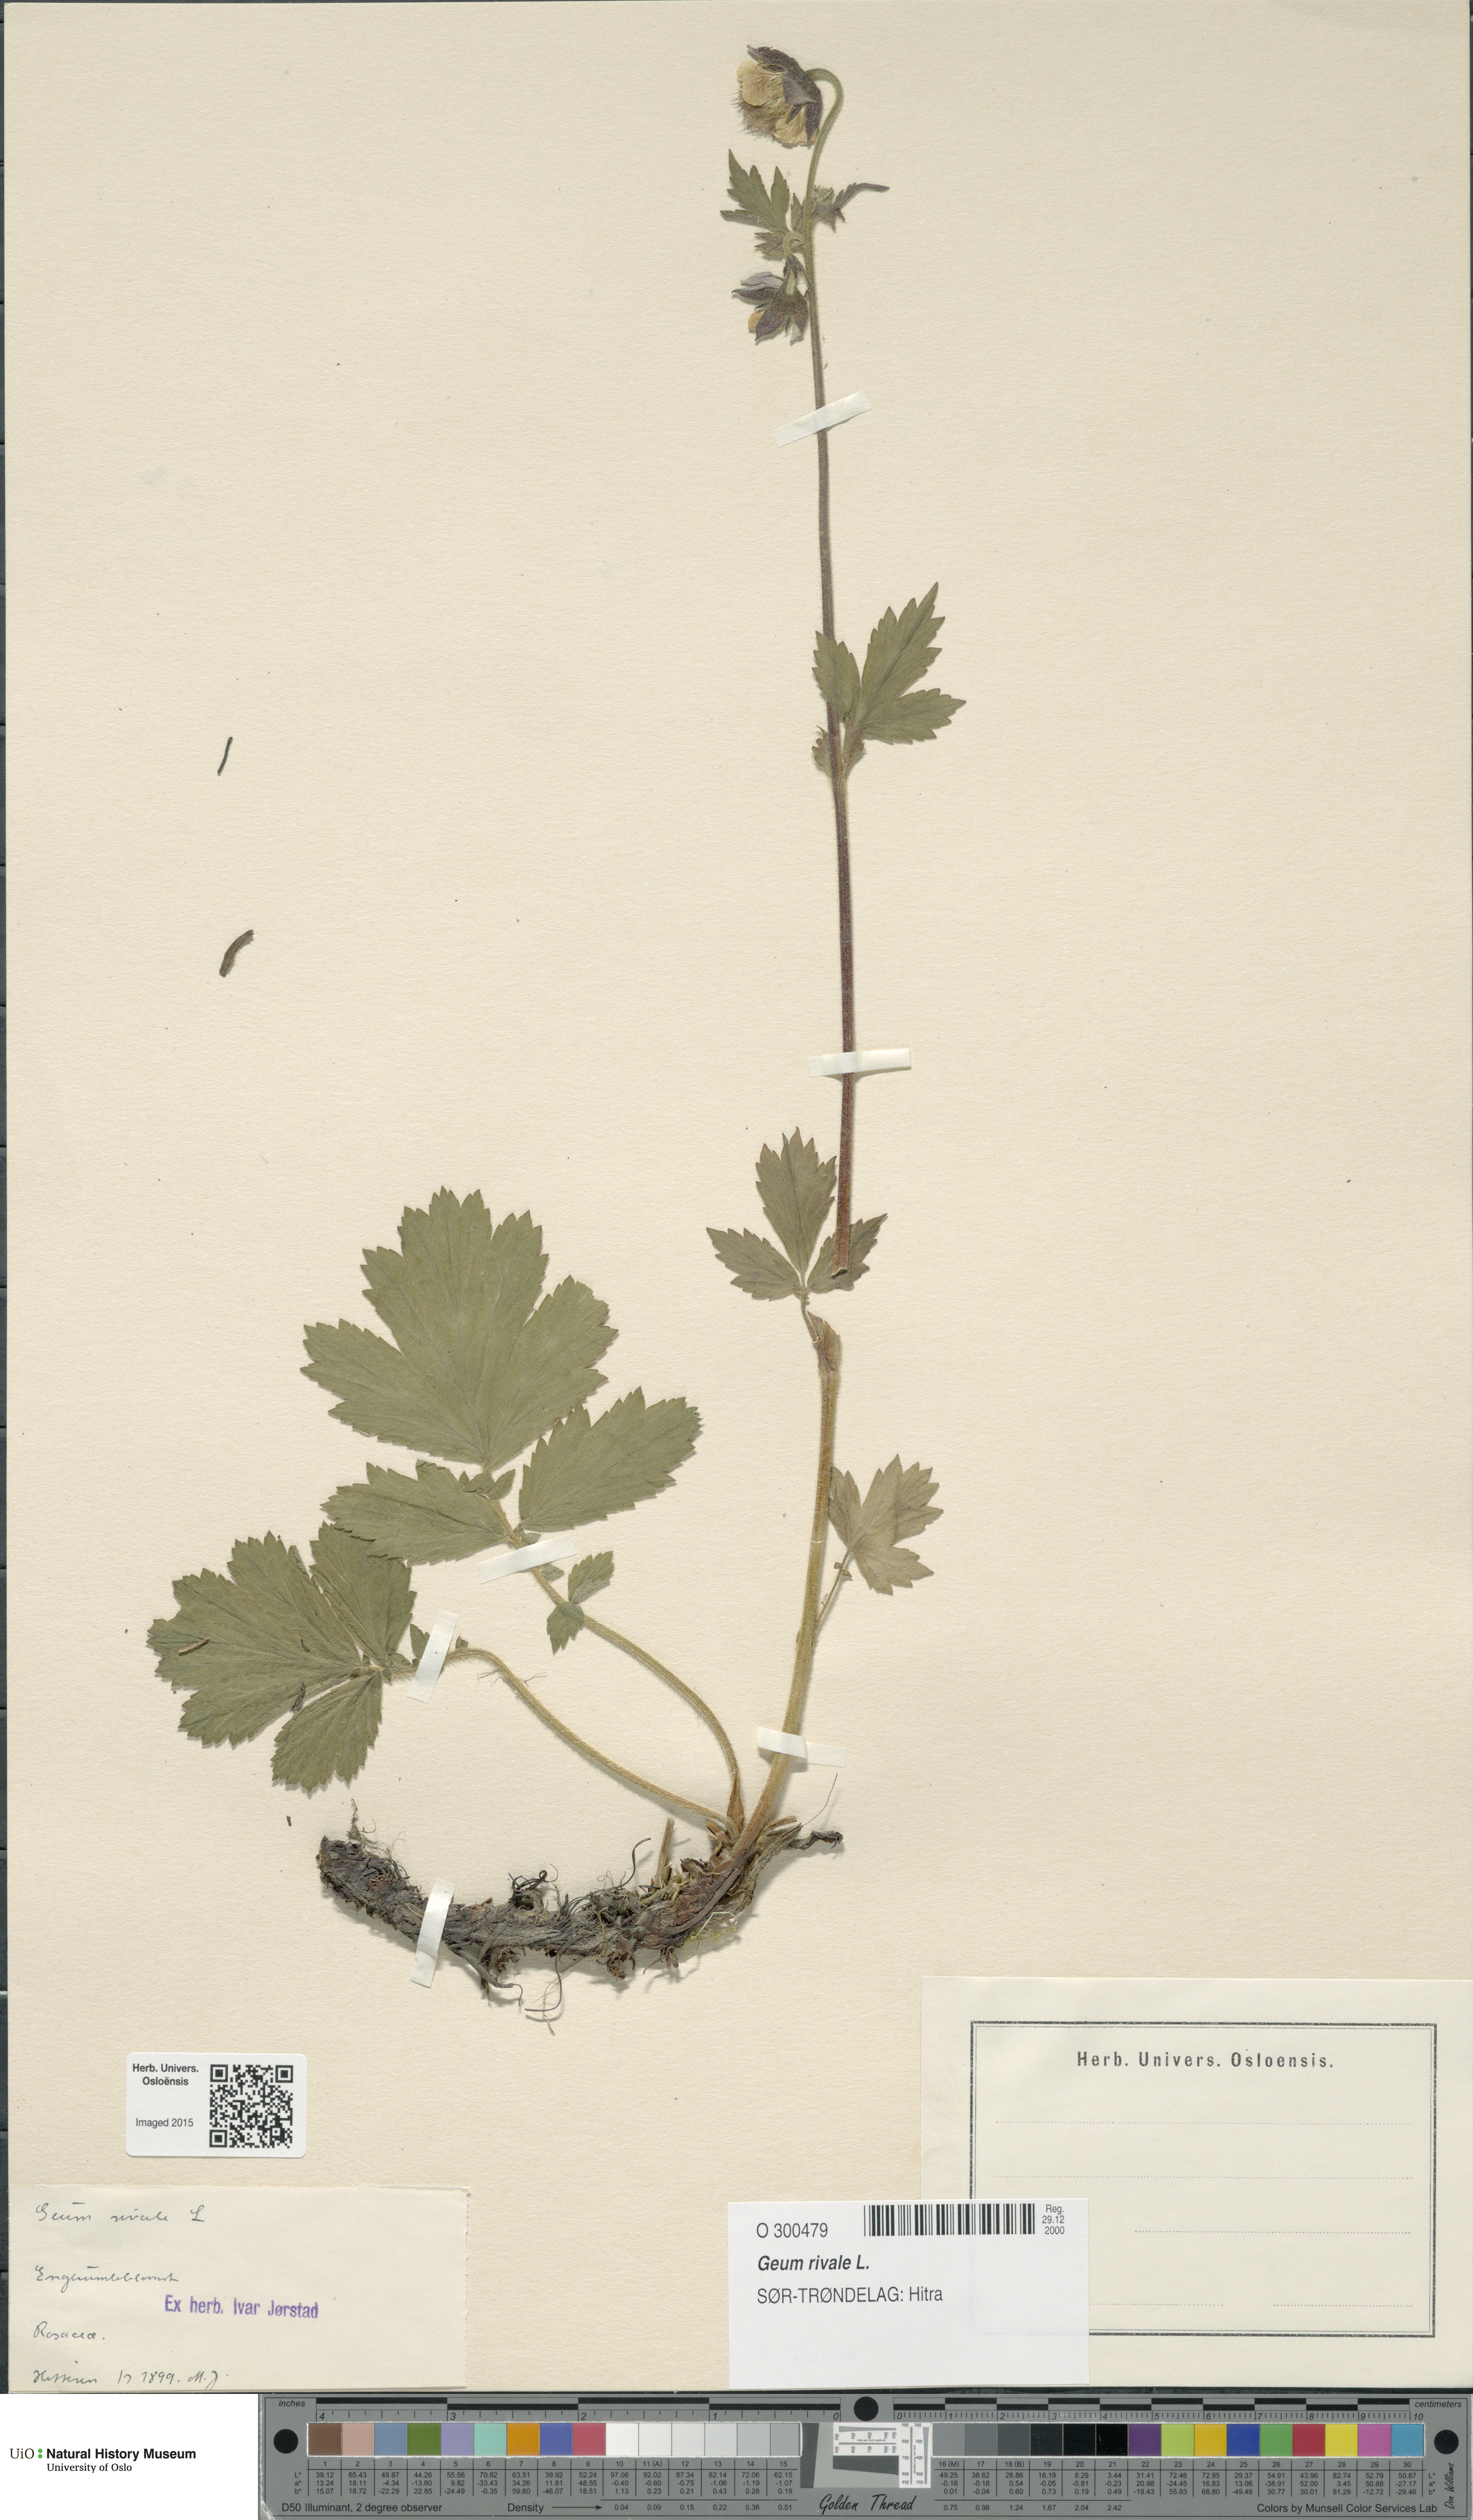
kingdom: Plantae
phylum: Tracheophyta
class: Magnoliopsida
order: Rosales
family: Rosaceae
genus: Geum
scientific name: Geum rivale
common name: Water avens
